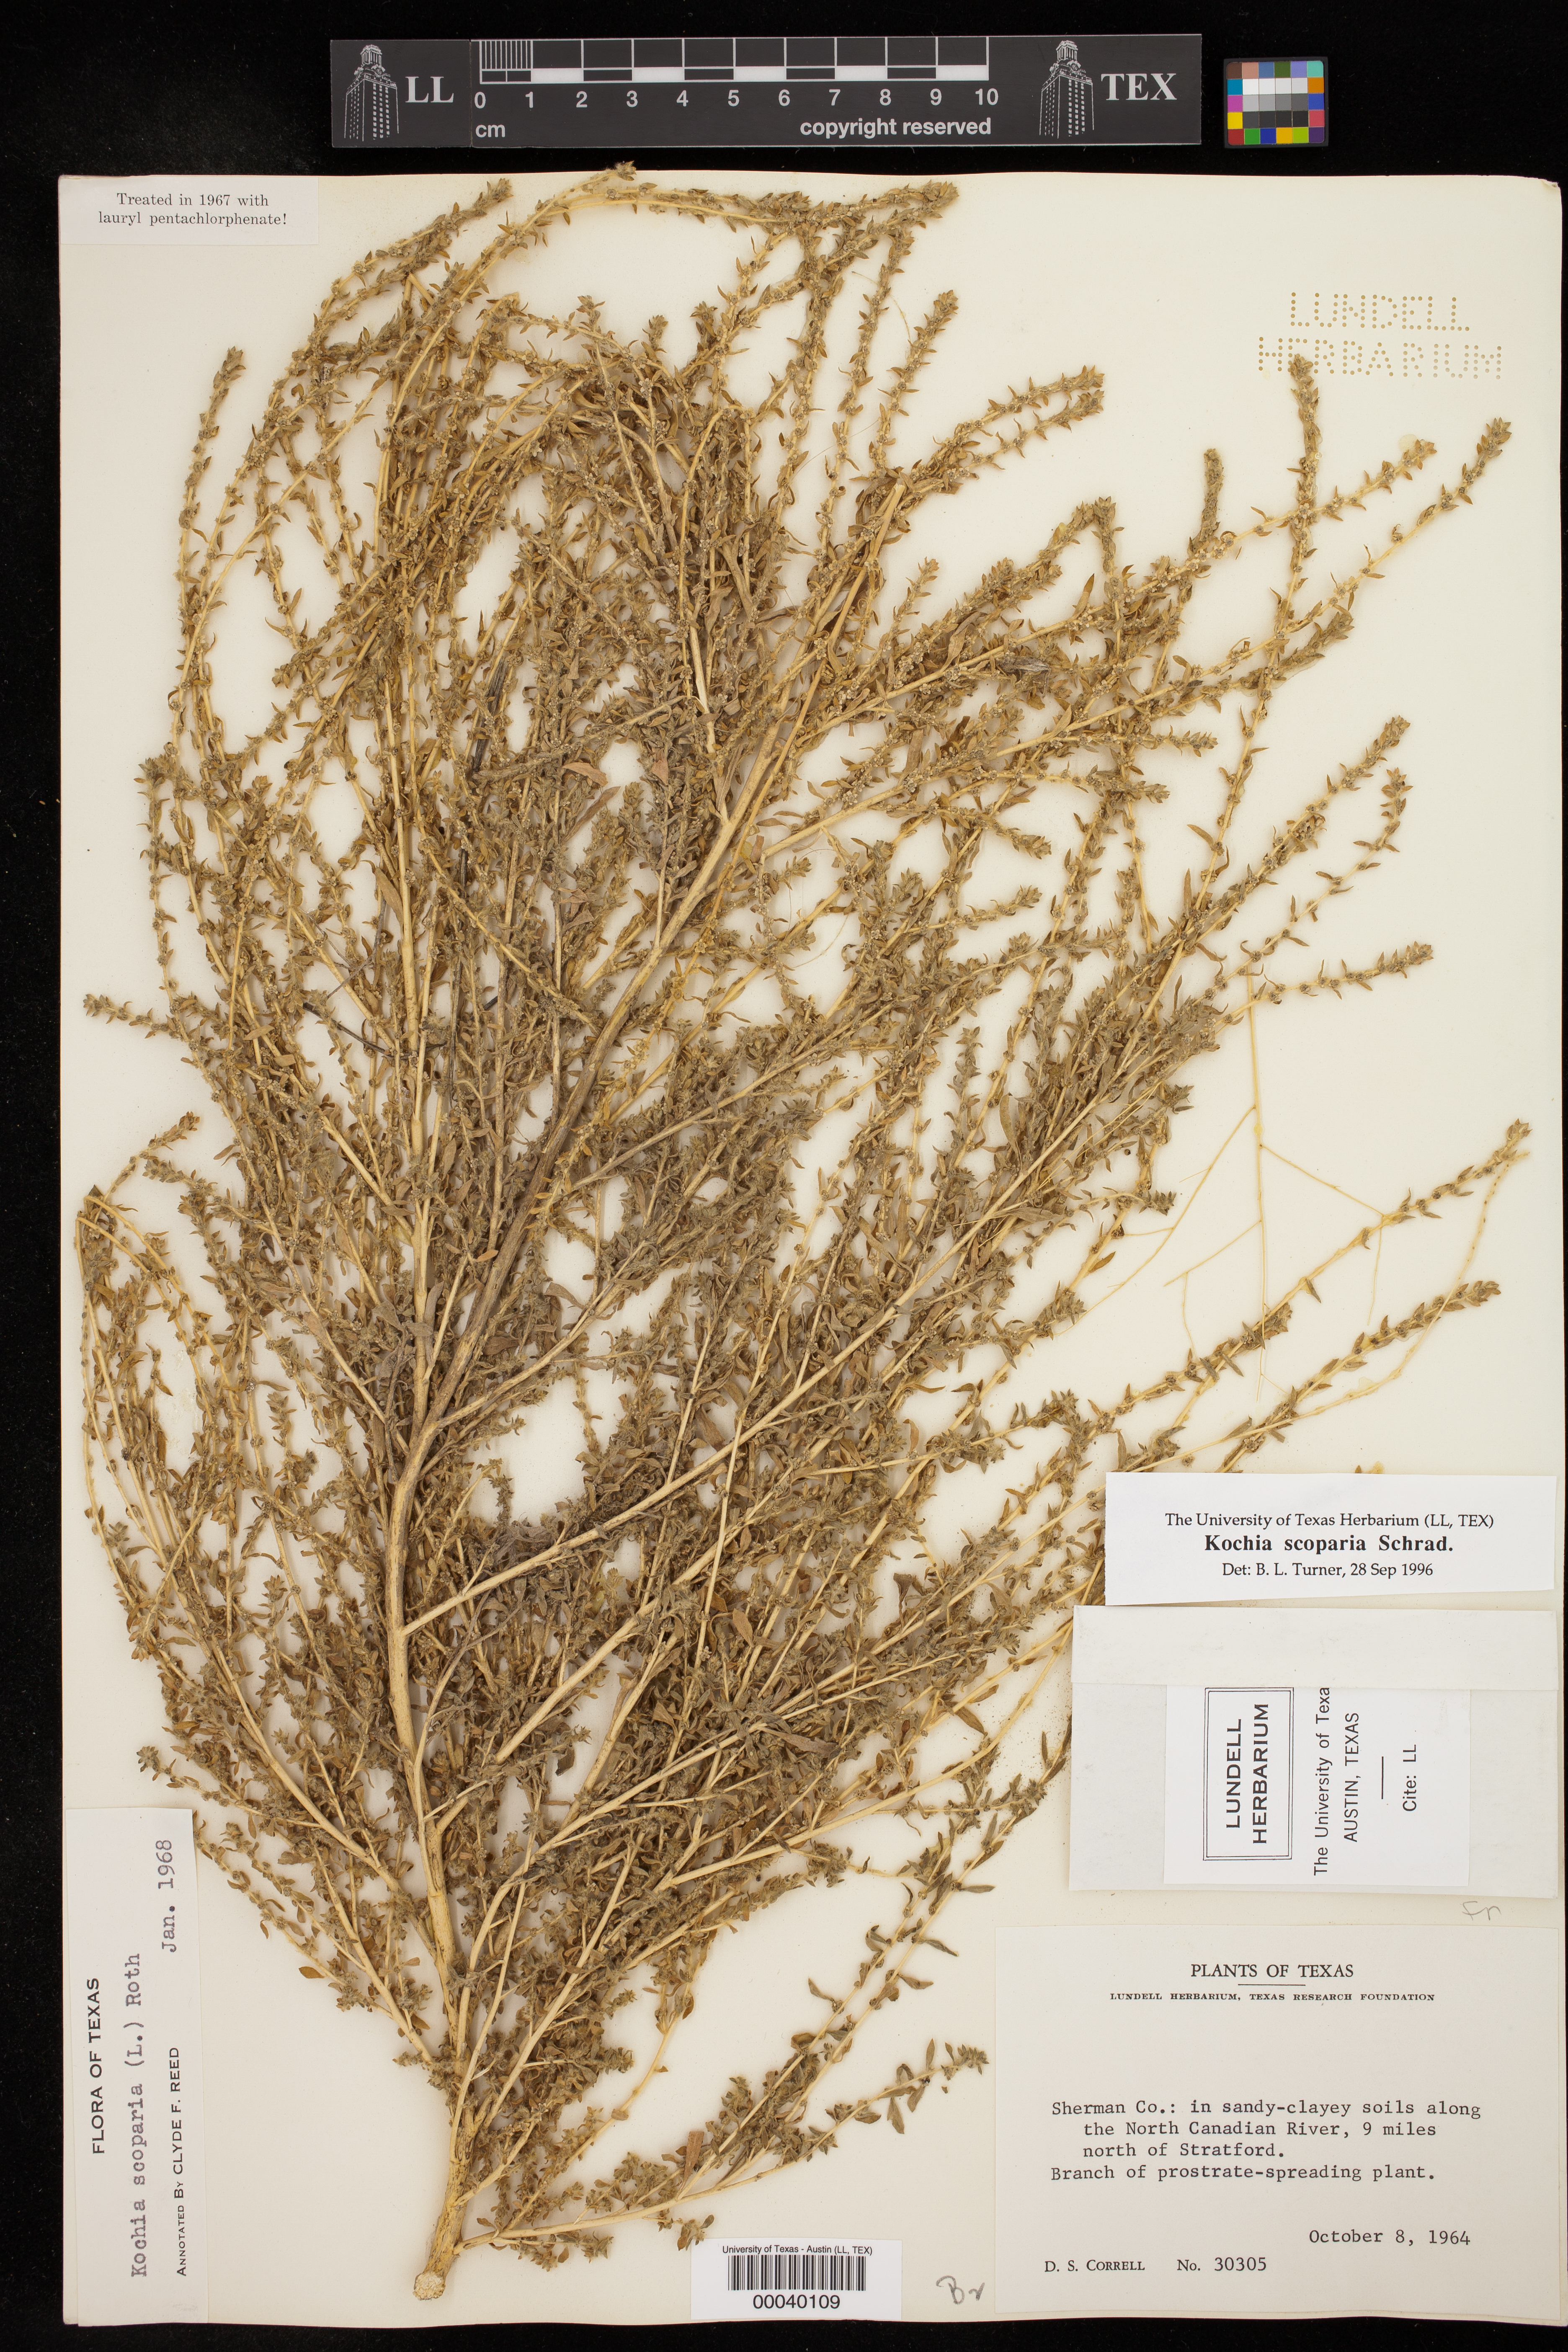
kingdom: Plantae
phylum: Tracheophyta
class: Magnoliopsida
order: Caryophyllales
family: Amaranthaceae
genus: Bassia
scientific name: Bassia scoparia
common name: Belvedere
